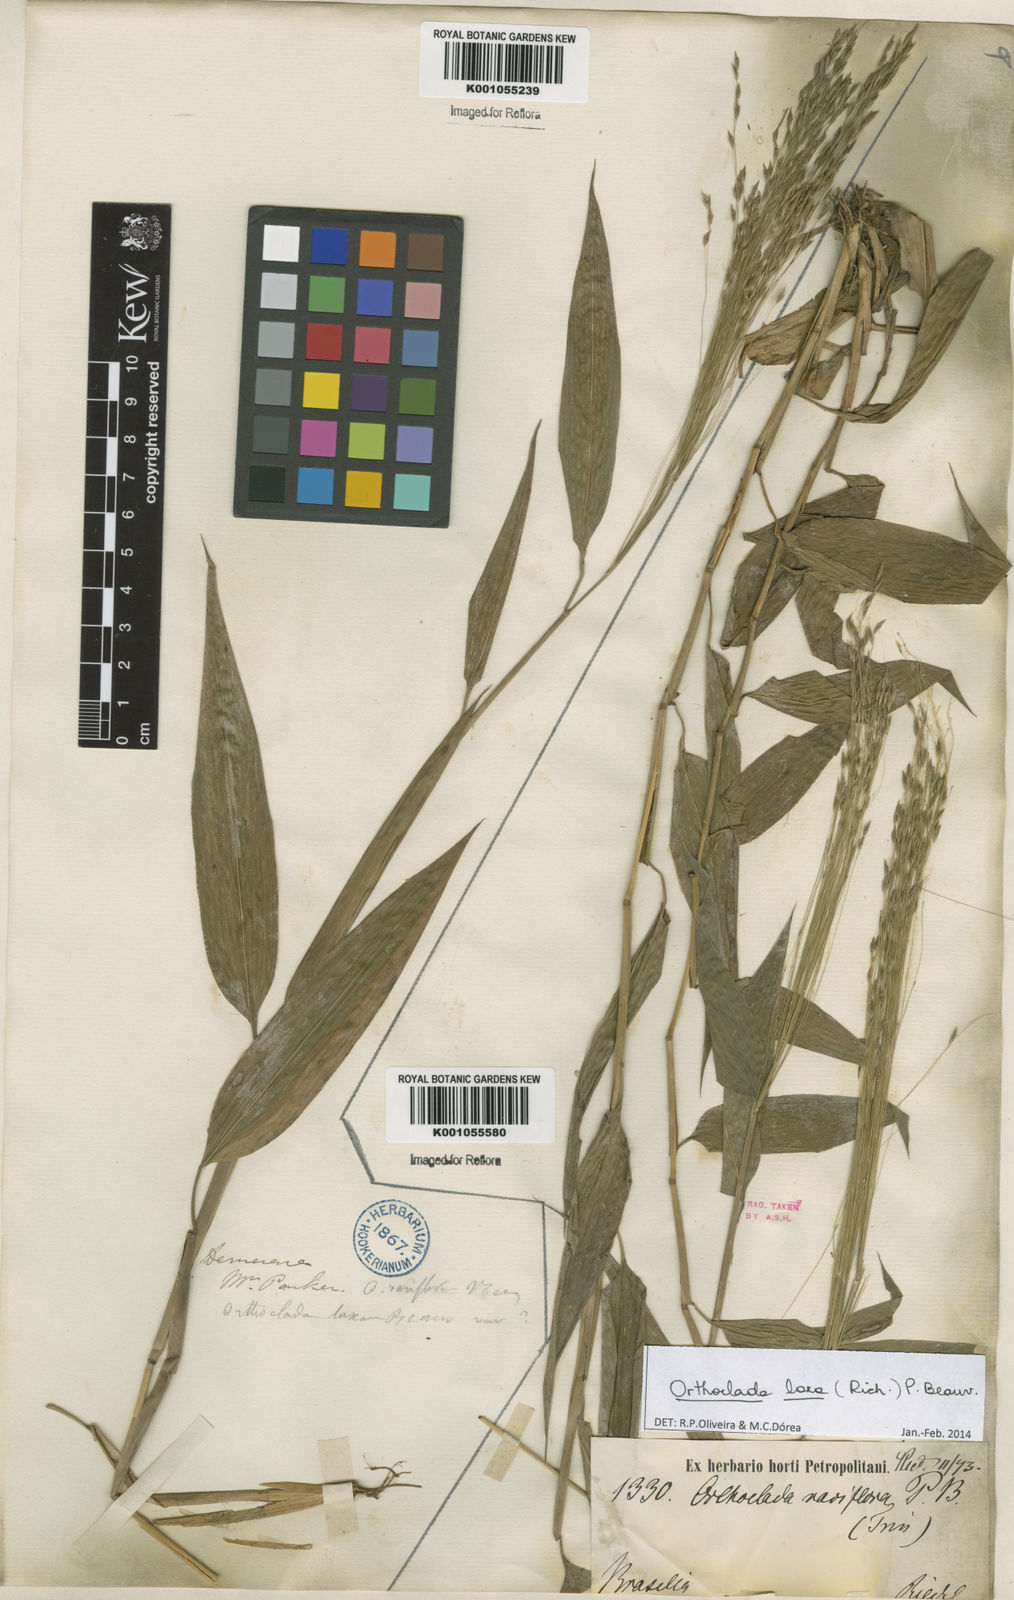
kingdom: Plantae
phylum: Tracheophyta
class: Liliopsida
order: Poales
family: Poaceae
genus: Orthoclada
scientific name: Orthoclada laxa
